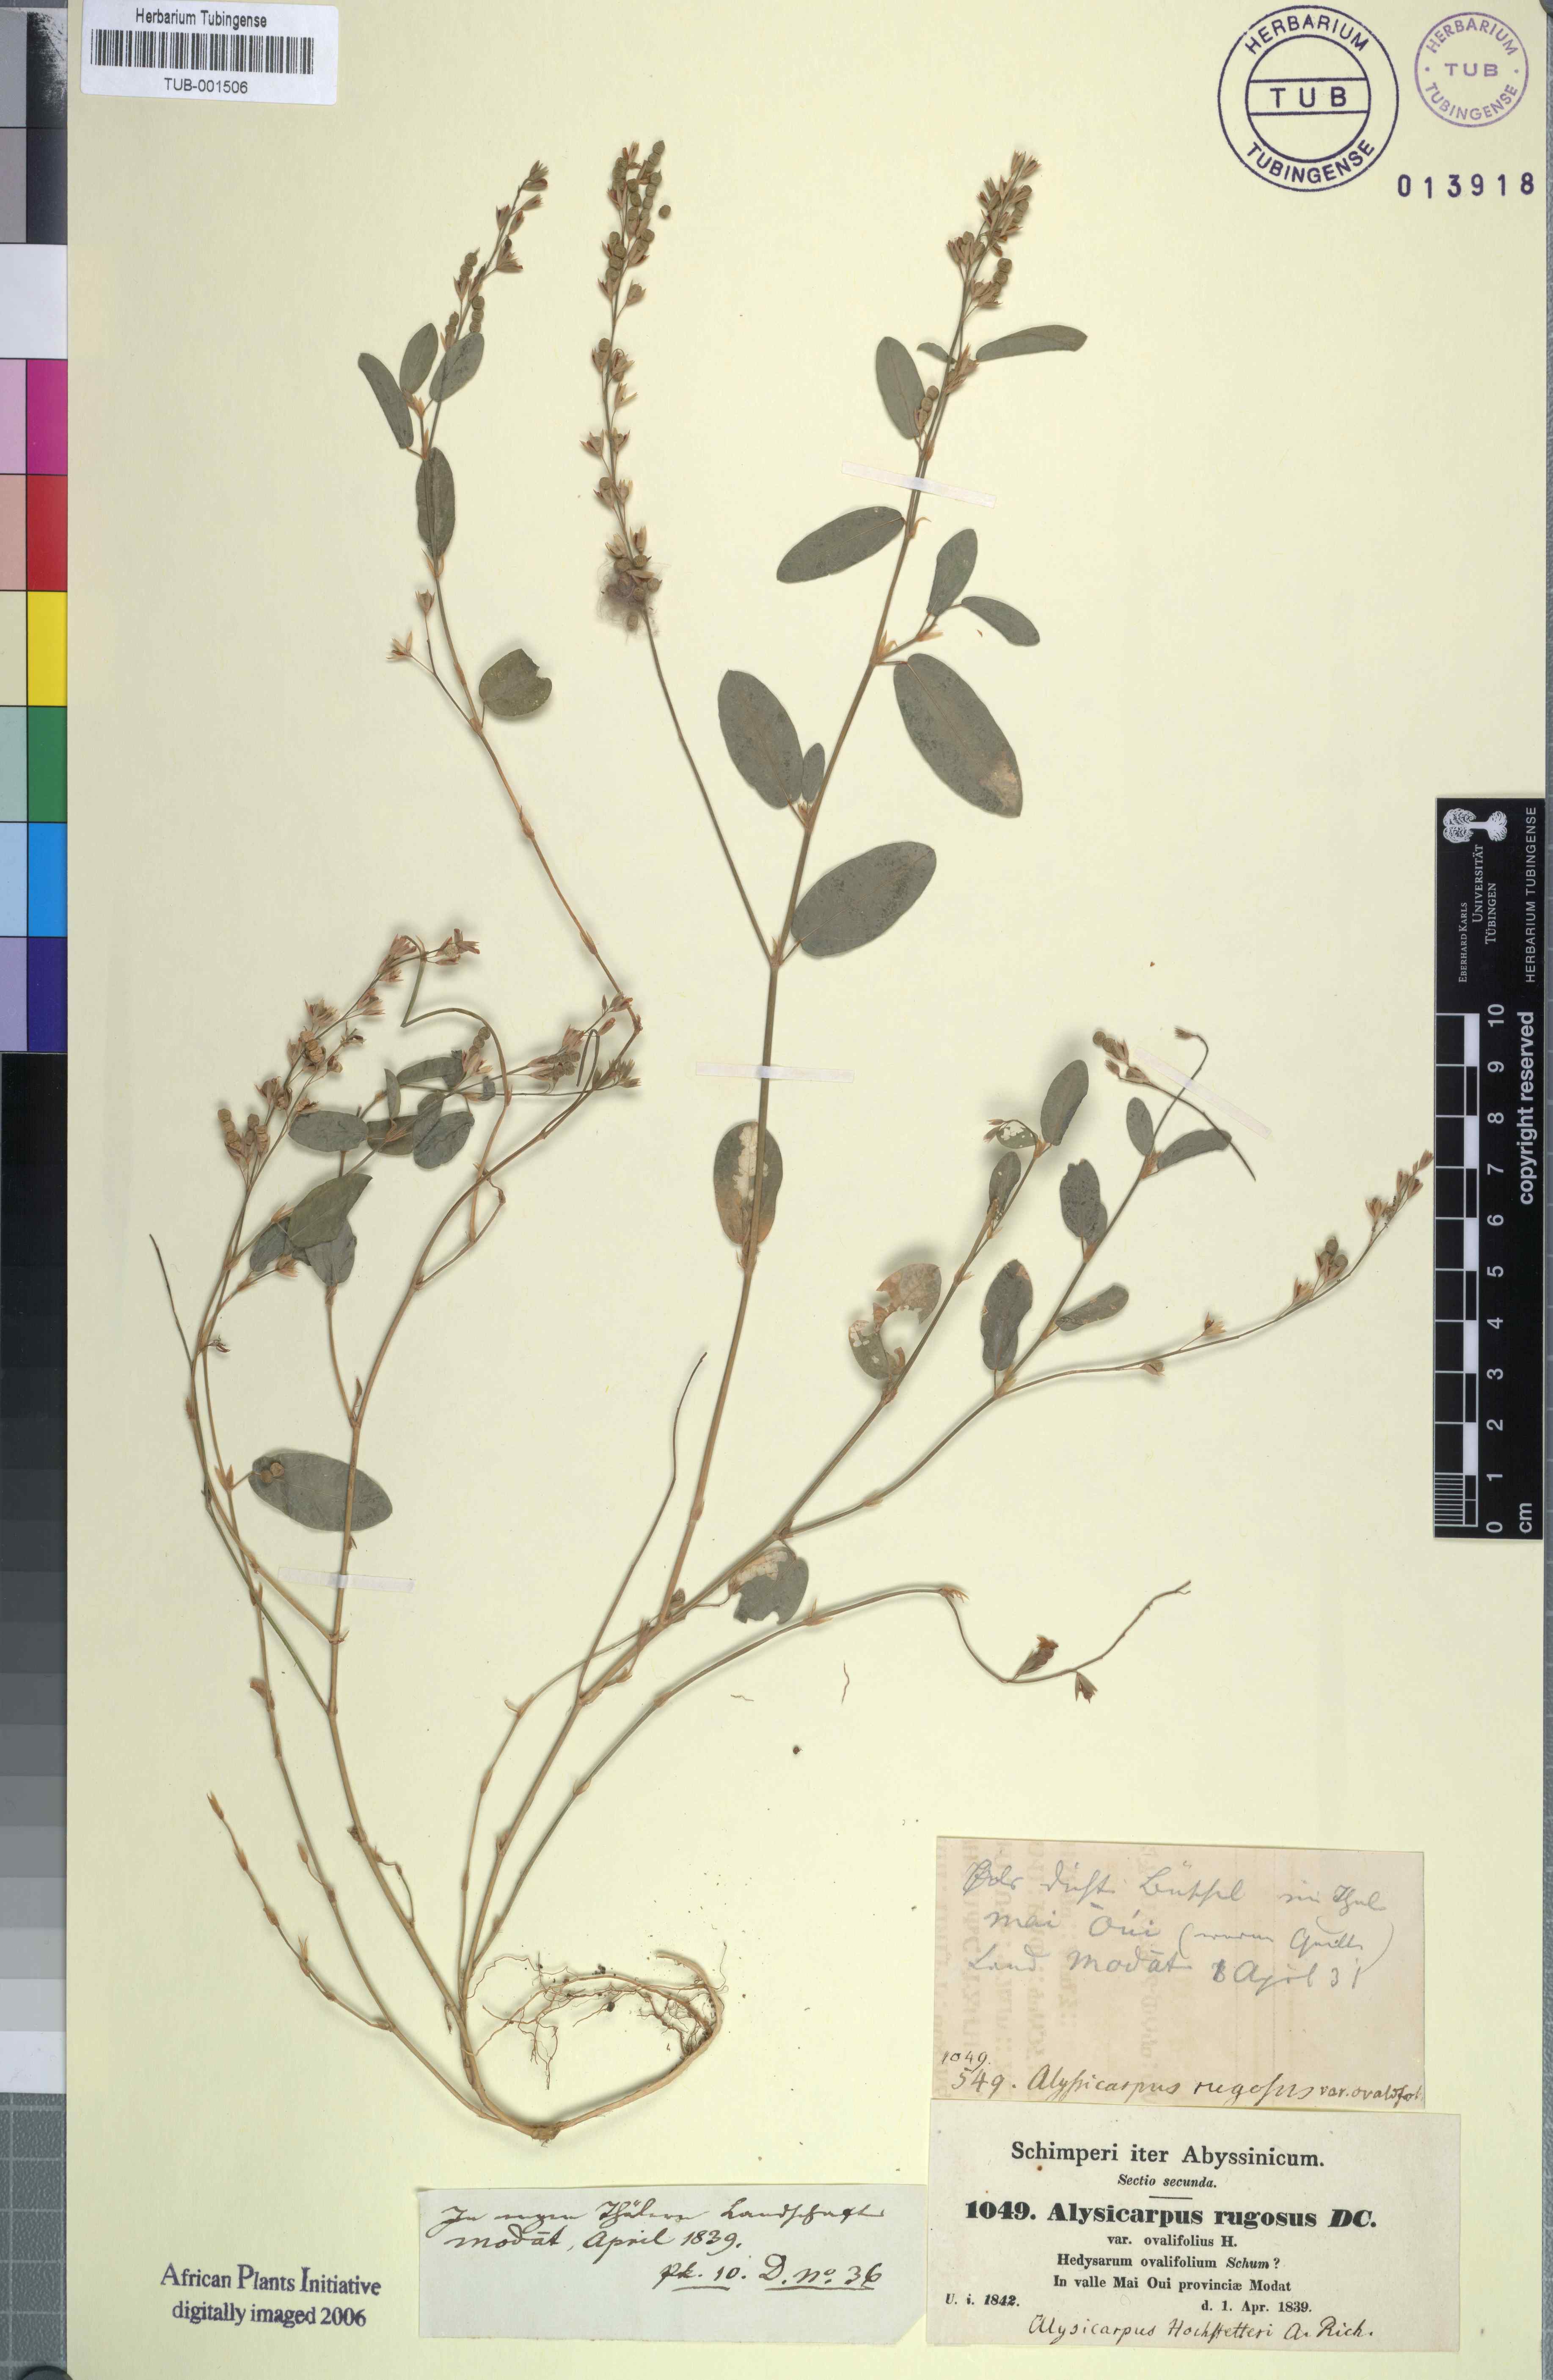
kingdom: Plantae
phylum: Tracheophyta
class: Magnoliopsida
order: Fabales
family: Fabaceae
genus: Alysicarpus
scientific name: Alysicarpus rugosus
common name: Red moneywort
